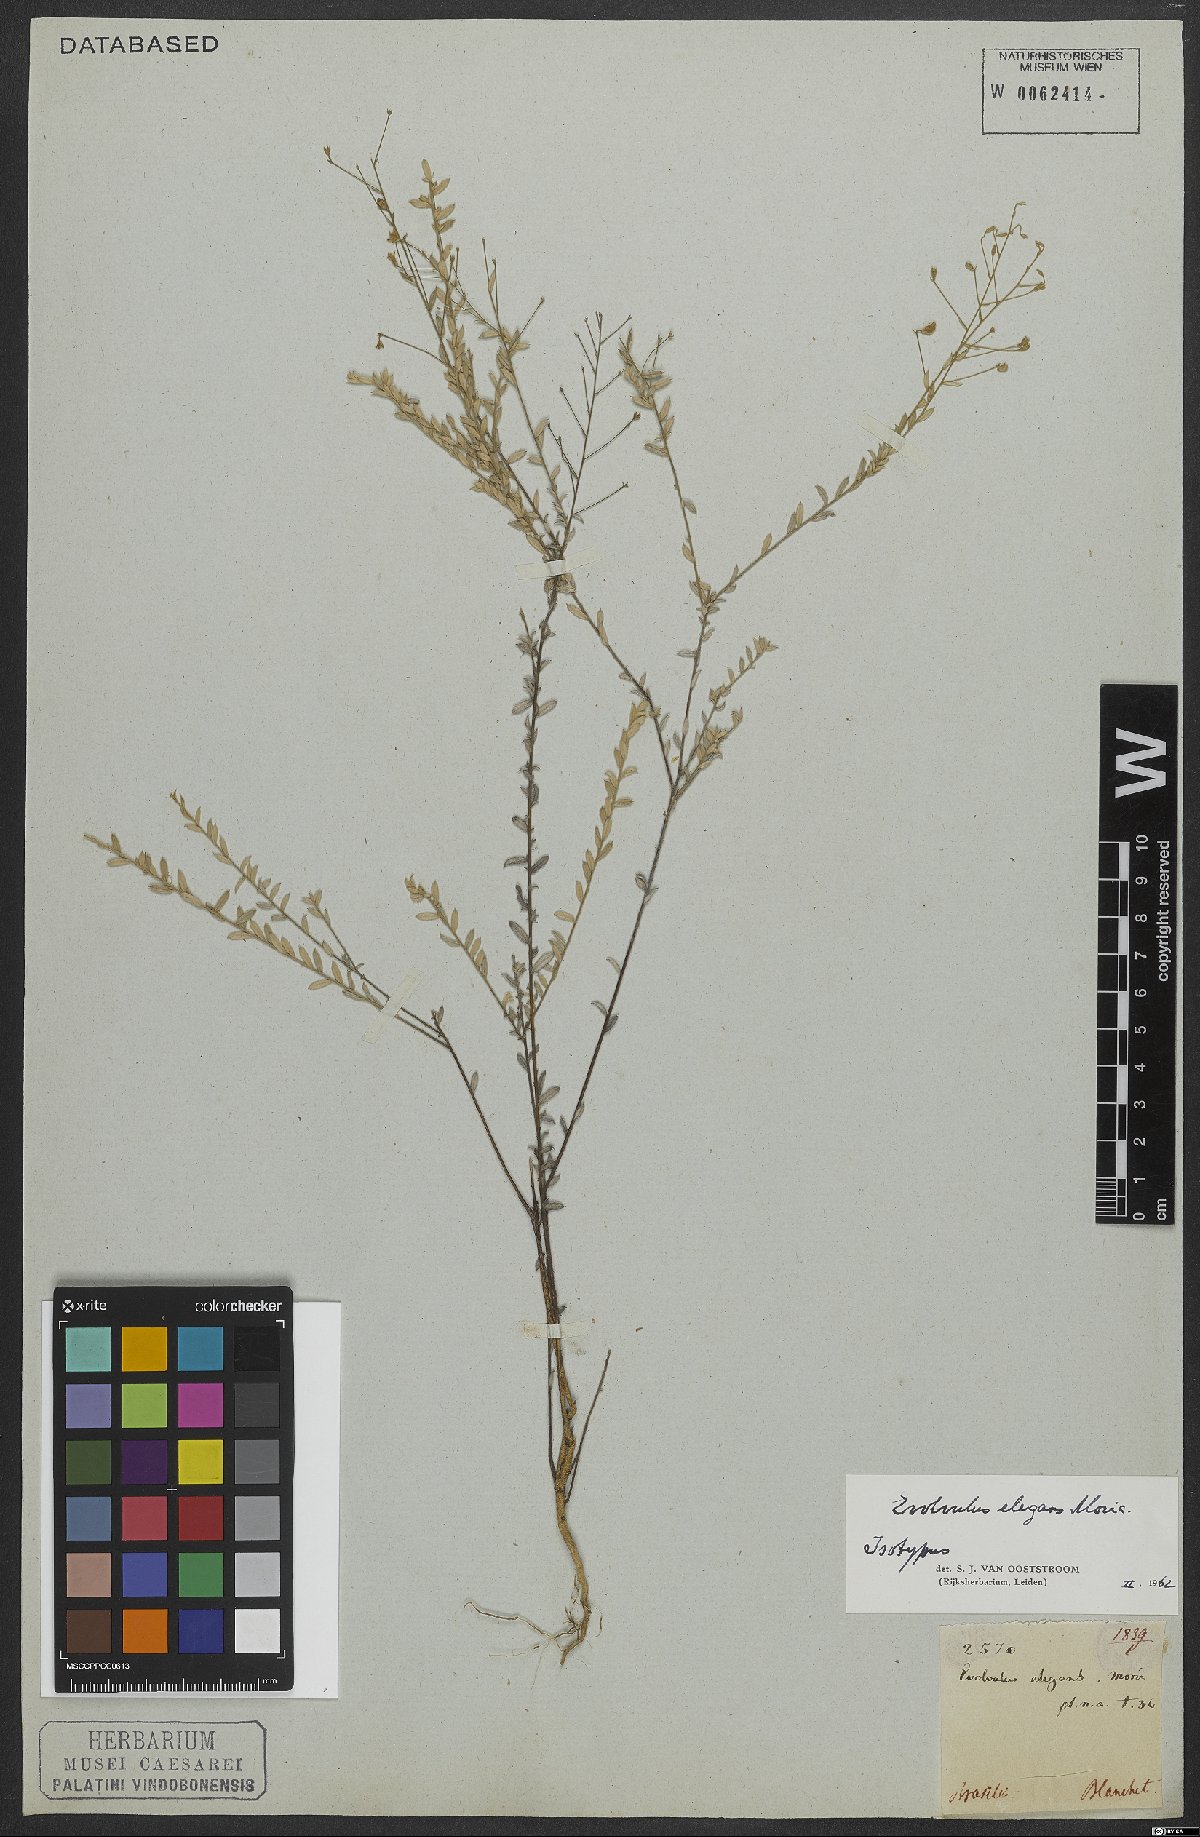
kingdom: Plantae
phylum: Tracheophyta
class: Magnoliopsida
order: Solanales
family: Convolvulaceae
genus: Evolvulus
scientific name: Evolvulus elegans
